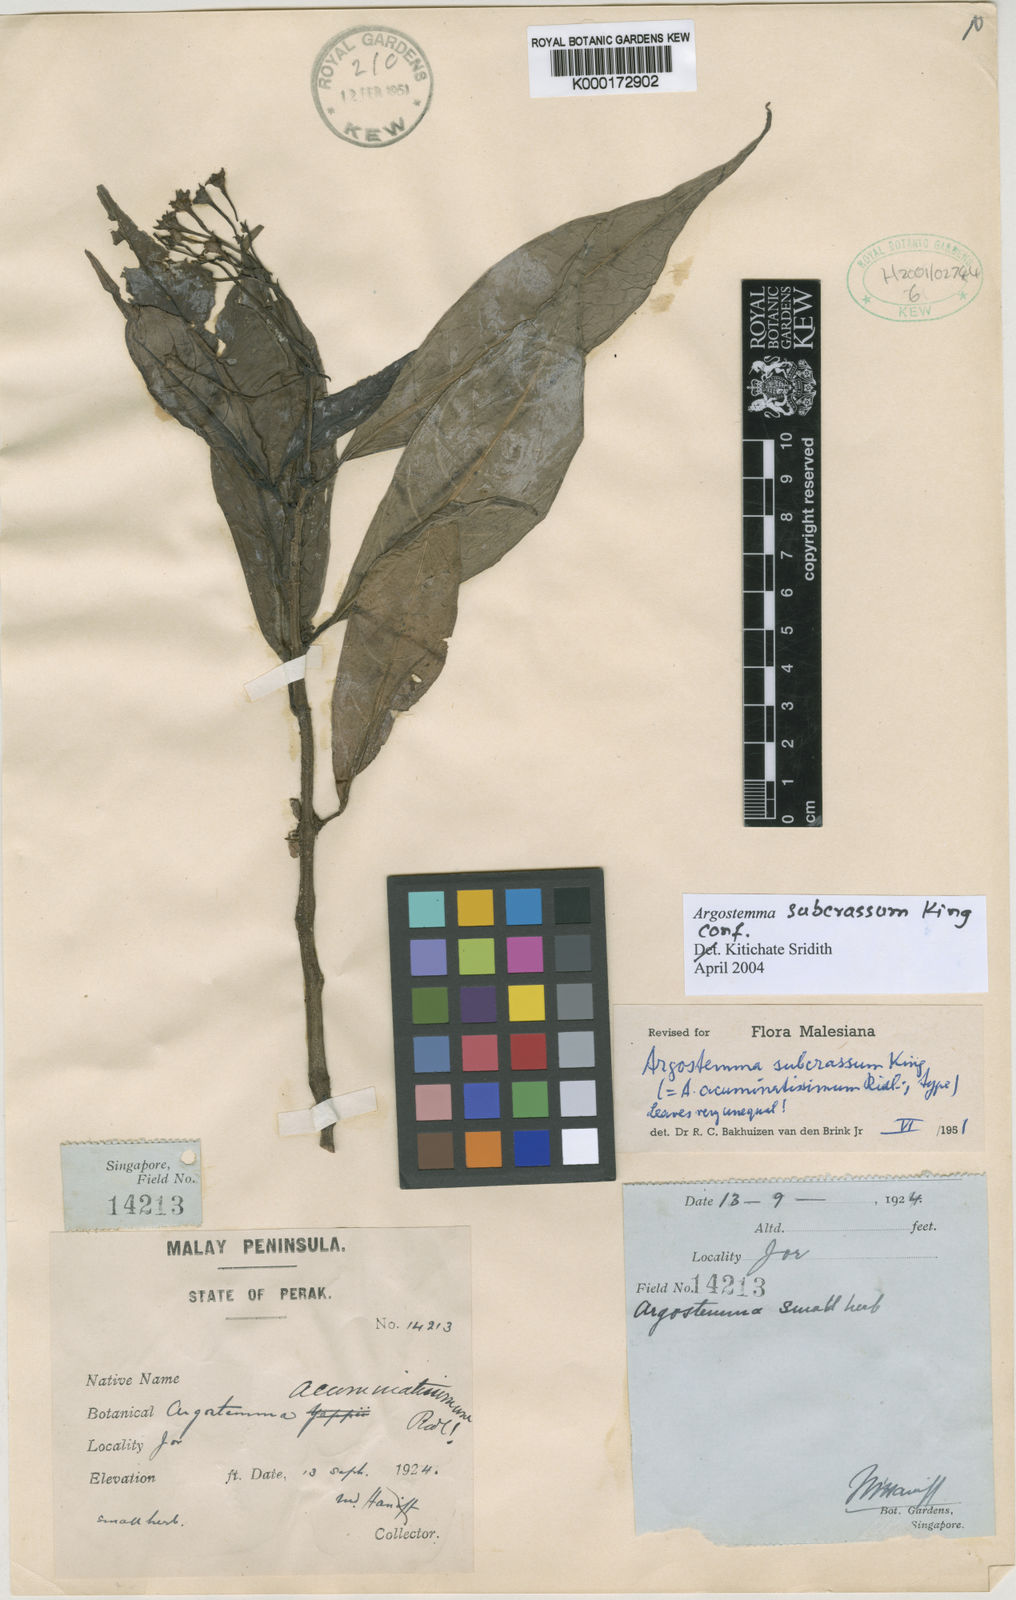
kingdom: Plantae
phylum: Tracheophyta
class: Magnoliopsida
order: Gentianales
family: Rubiaceae
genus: Argostemma
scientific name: Argostemma subcrassum
